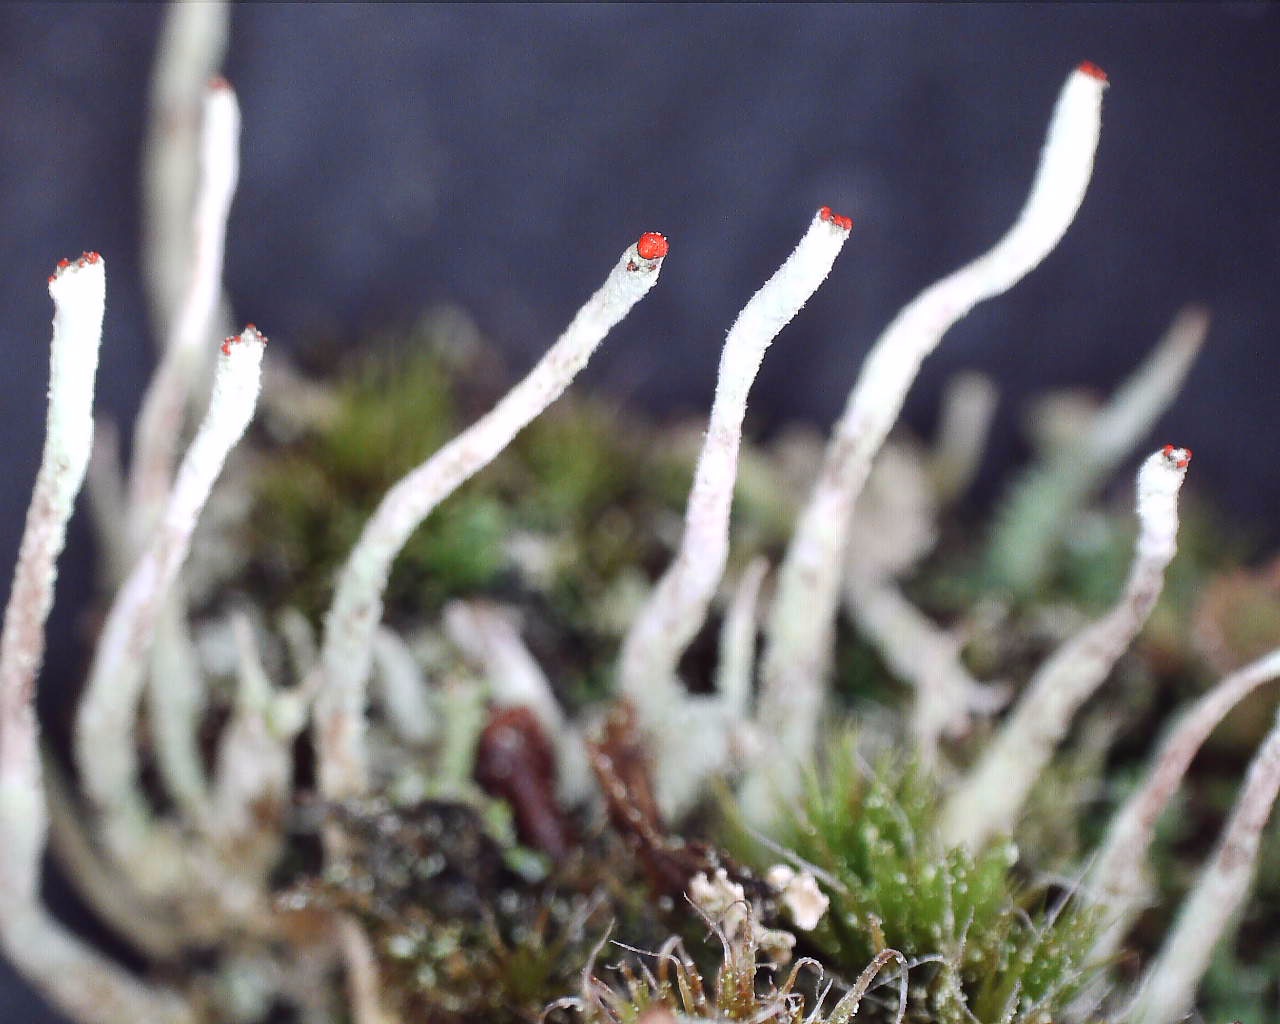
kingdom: Fungi
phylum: Ascomycota
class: Lecanoromycetes
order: Lecanorales
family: Cladoniaceae
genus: Cladonia
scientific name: Cladonia macilenta
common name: indsvunden bægerlav
